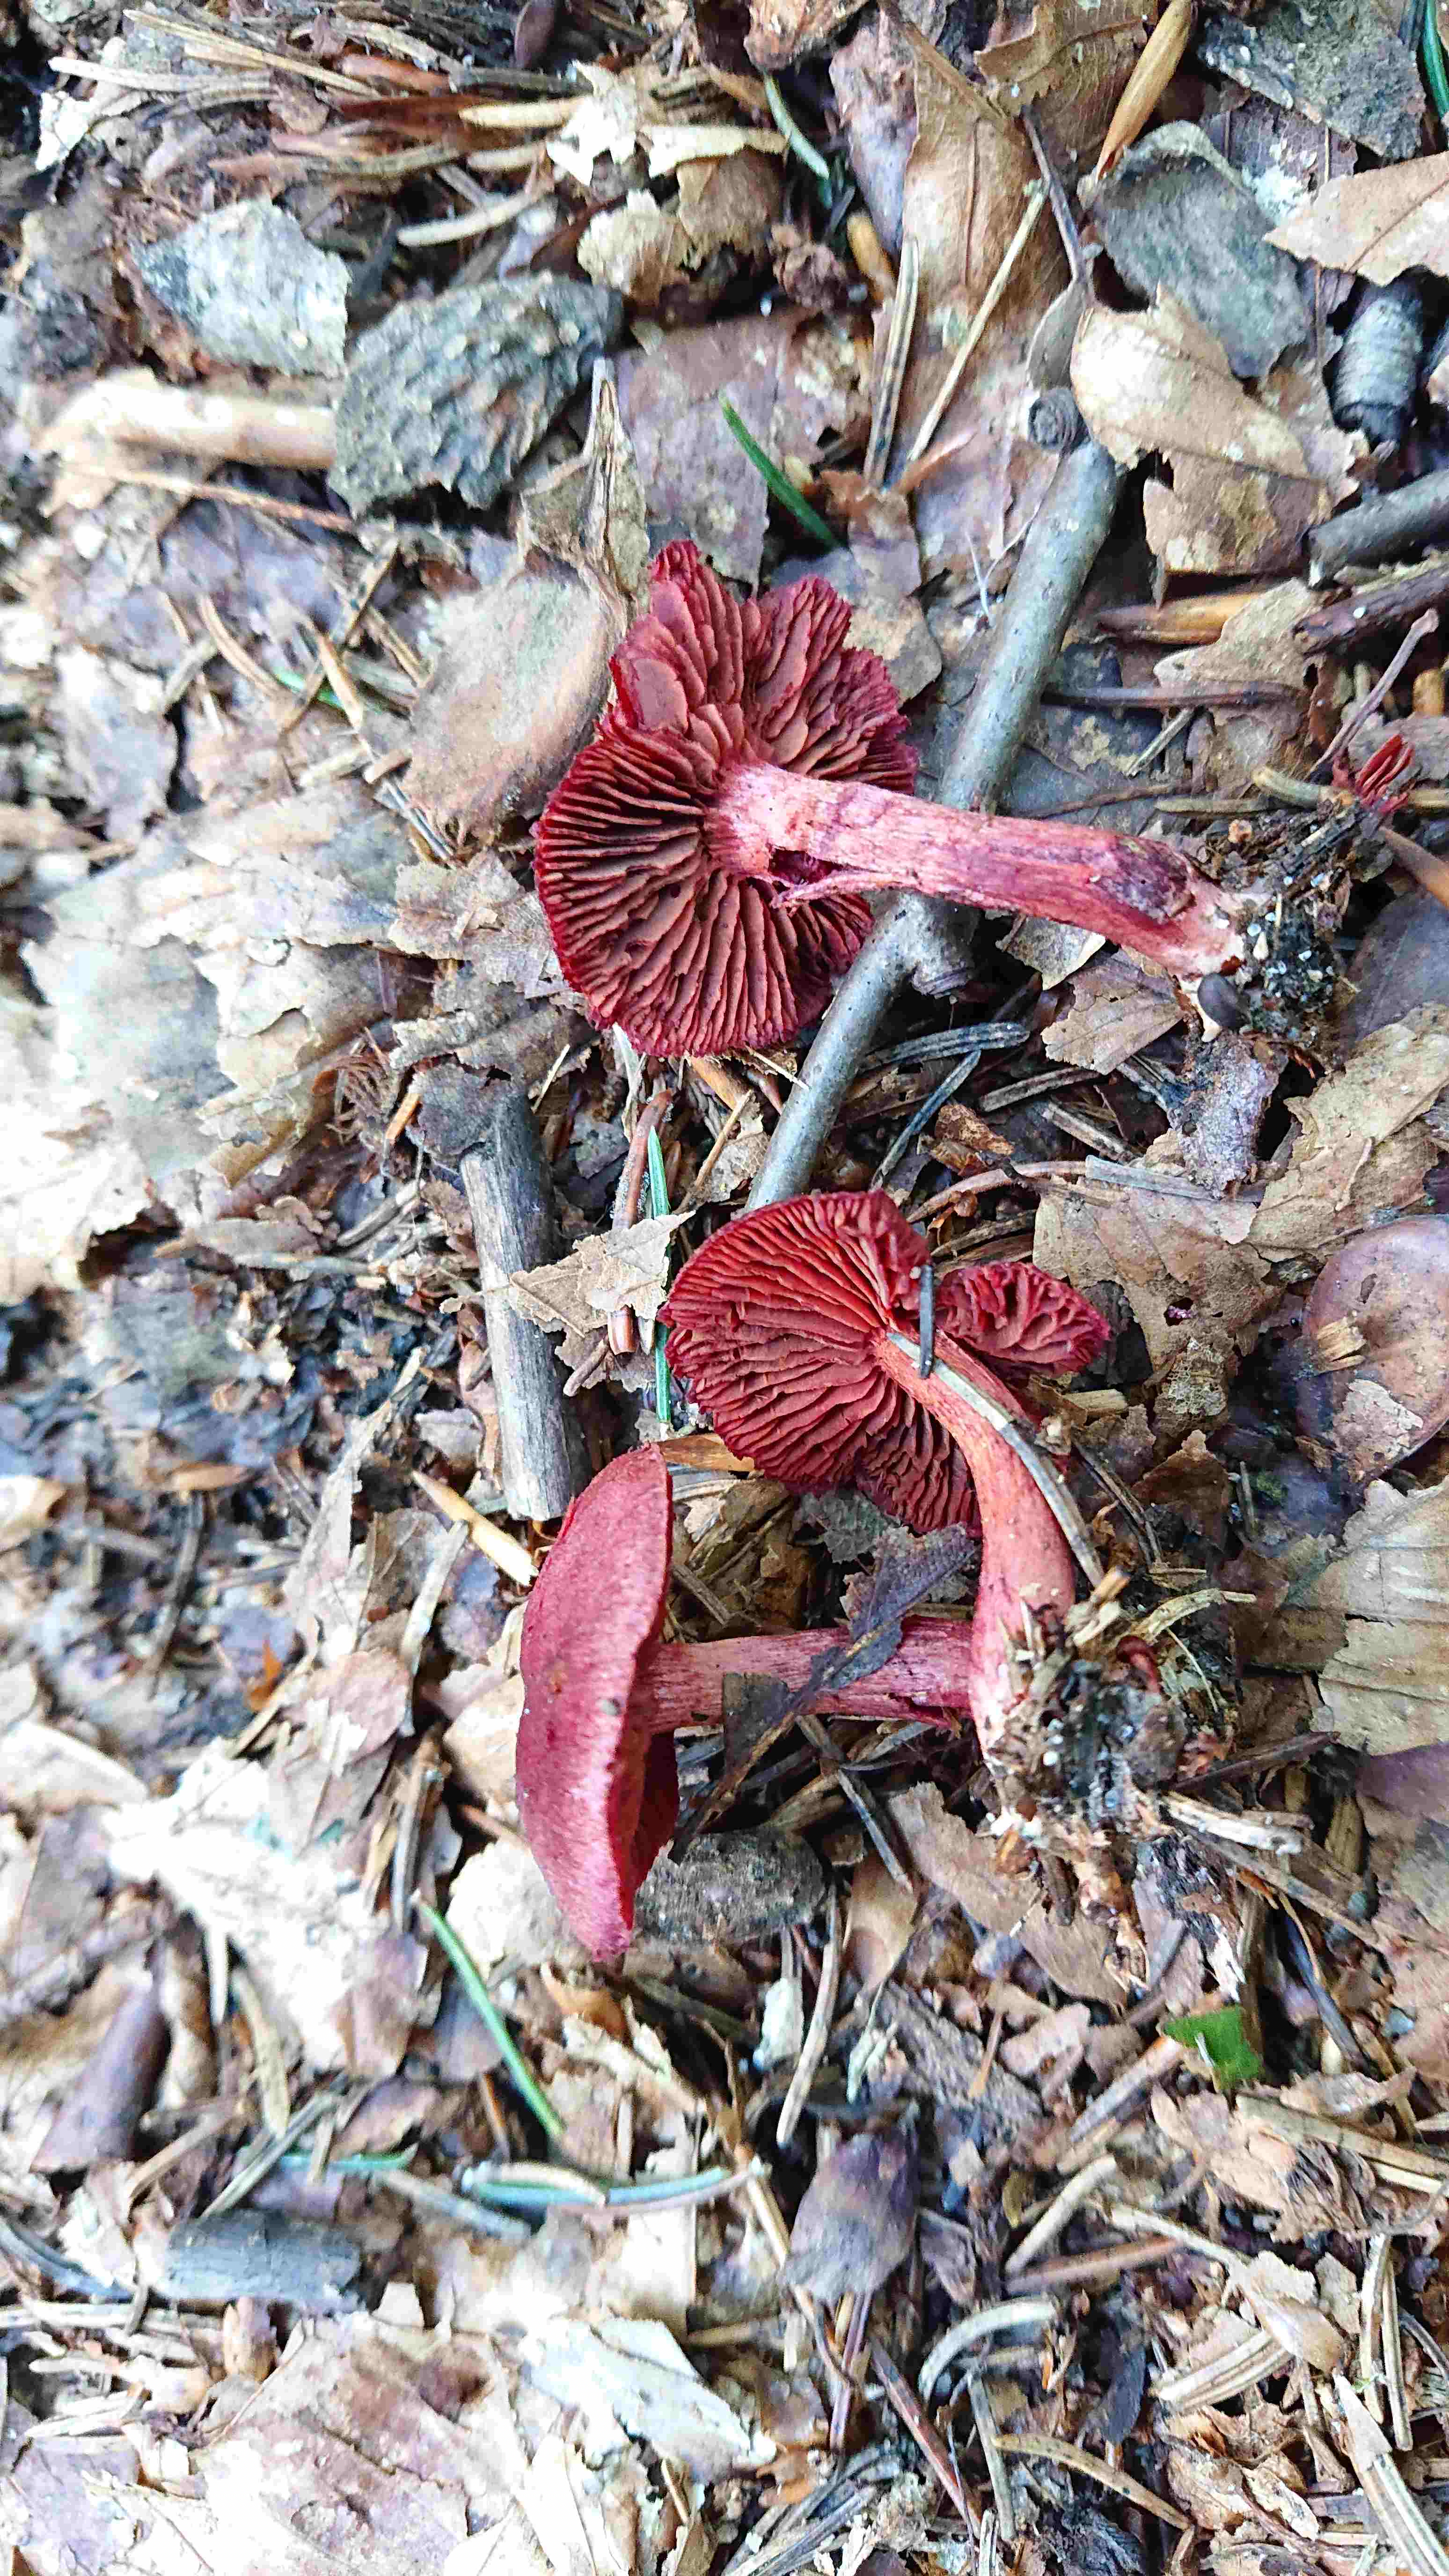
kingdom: Fungi
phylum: Basidiomycota
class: Agaricomycetes
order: Agaricales
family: Cortinariaceae
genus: Cortinarius
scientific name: Cortinarius sanguineus
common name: blodrød slørhat
